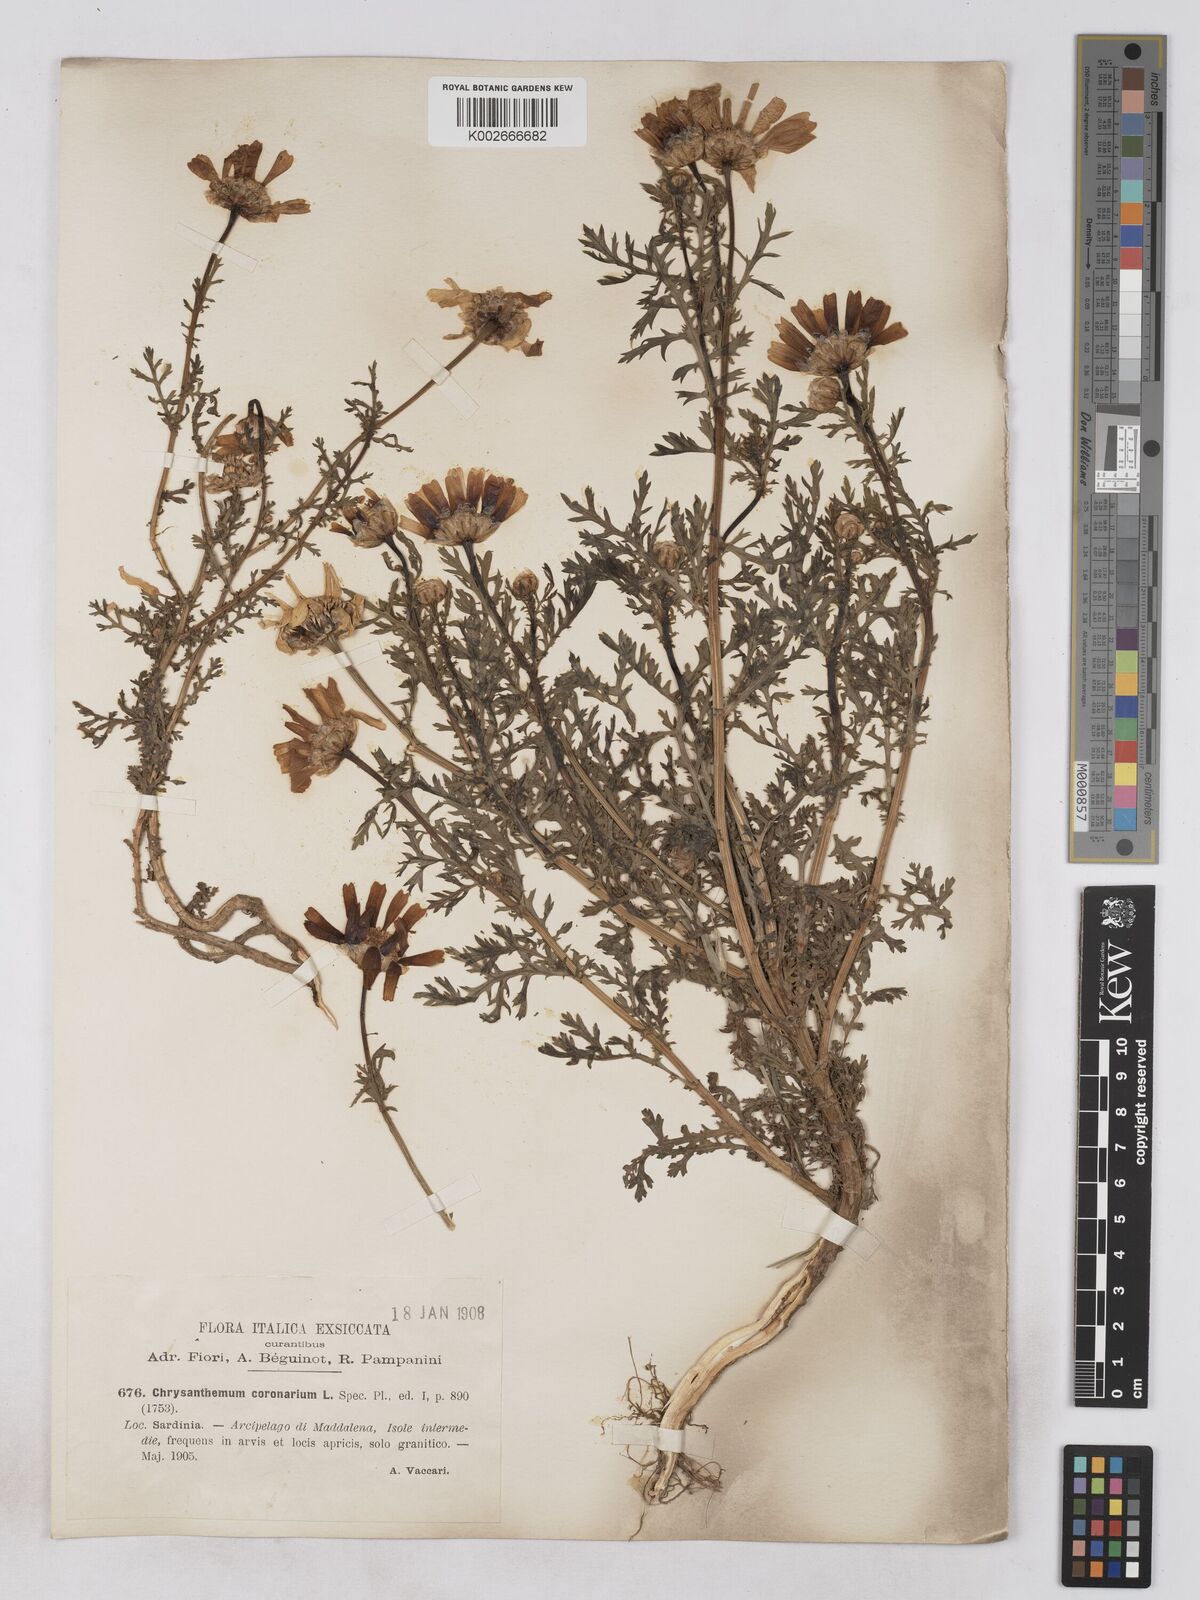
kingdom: Plantae
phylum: Tracheophyta
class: Magnoliopsida
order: Asterales
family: Asteraceae
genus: Glebionis
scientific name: Glebionis coronaria
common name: Crowndaisy
